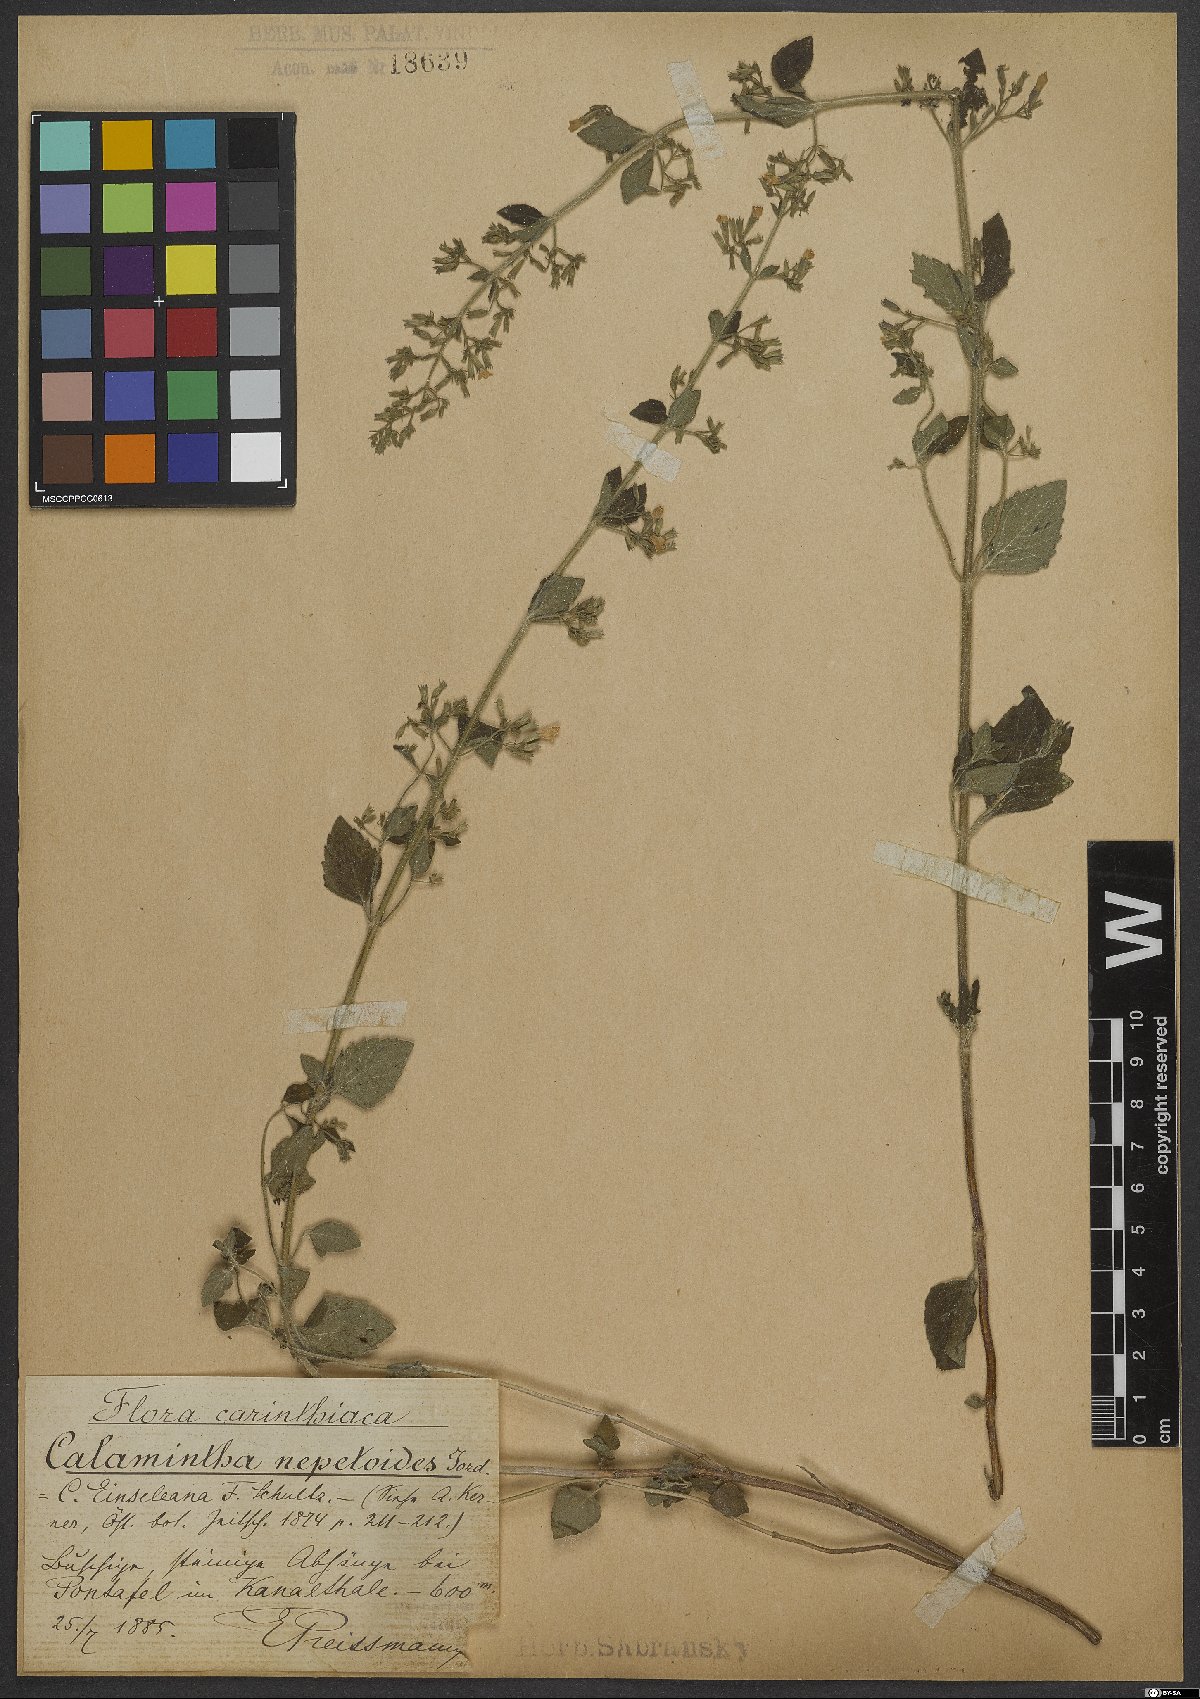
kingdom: Plantae
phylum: Tracheophyta
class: Magnoliopsida
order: Lamiales
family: Lamiaceae
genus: Clinopodium
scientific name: Clinopodium nepeta
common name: Lesser calamint
